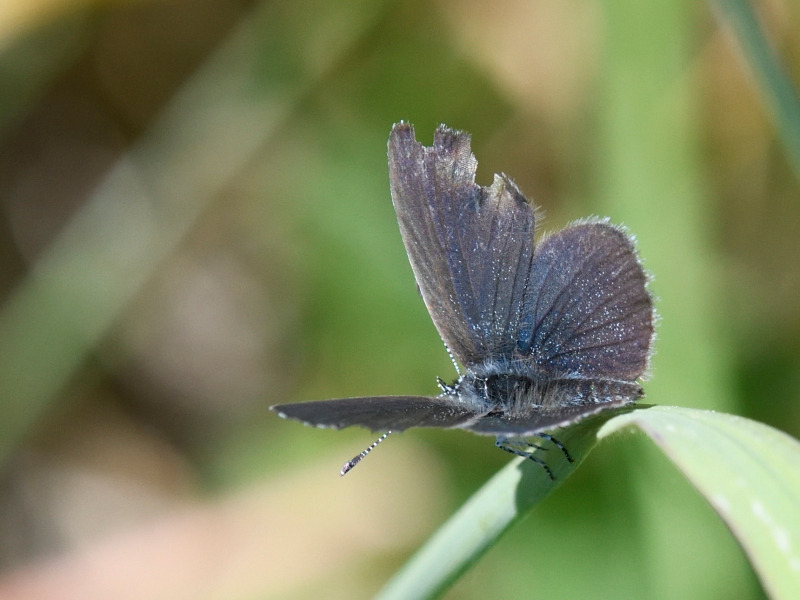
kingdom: Animalia
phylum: Arthropoda
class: Insecta
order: Lepidoptera
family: Lycaenidae
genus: Cupido
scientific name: Cupido minimus
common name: Dværgblåfugl
